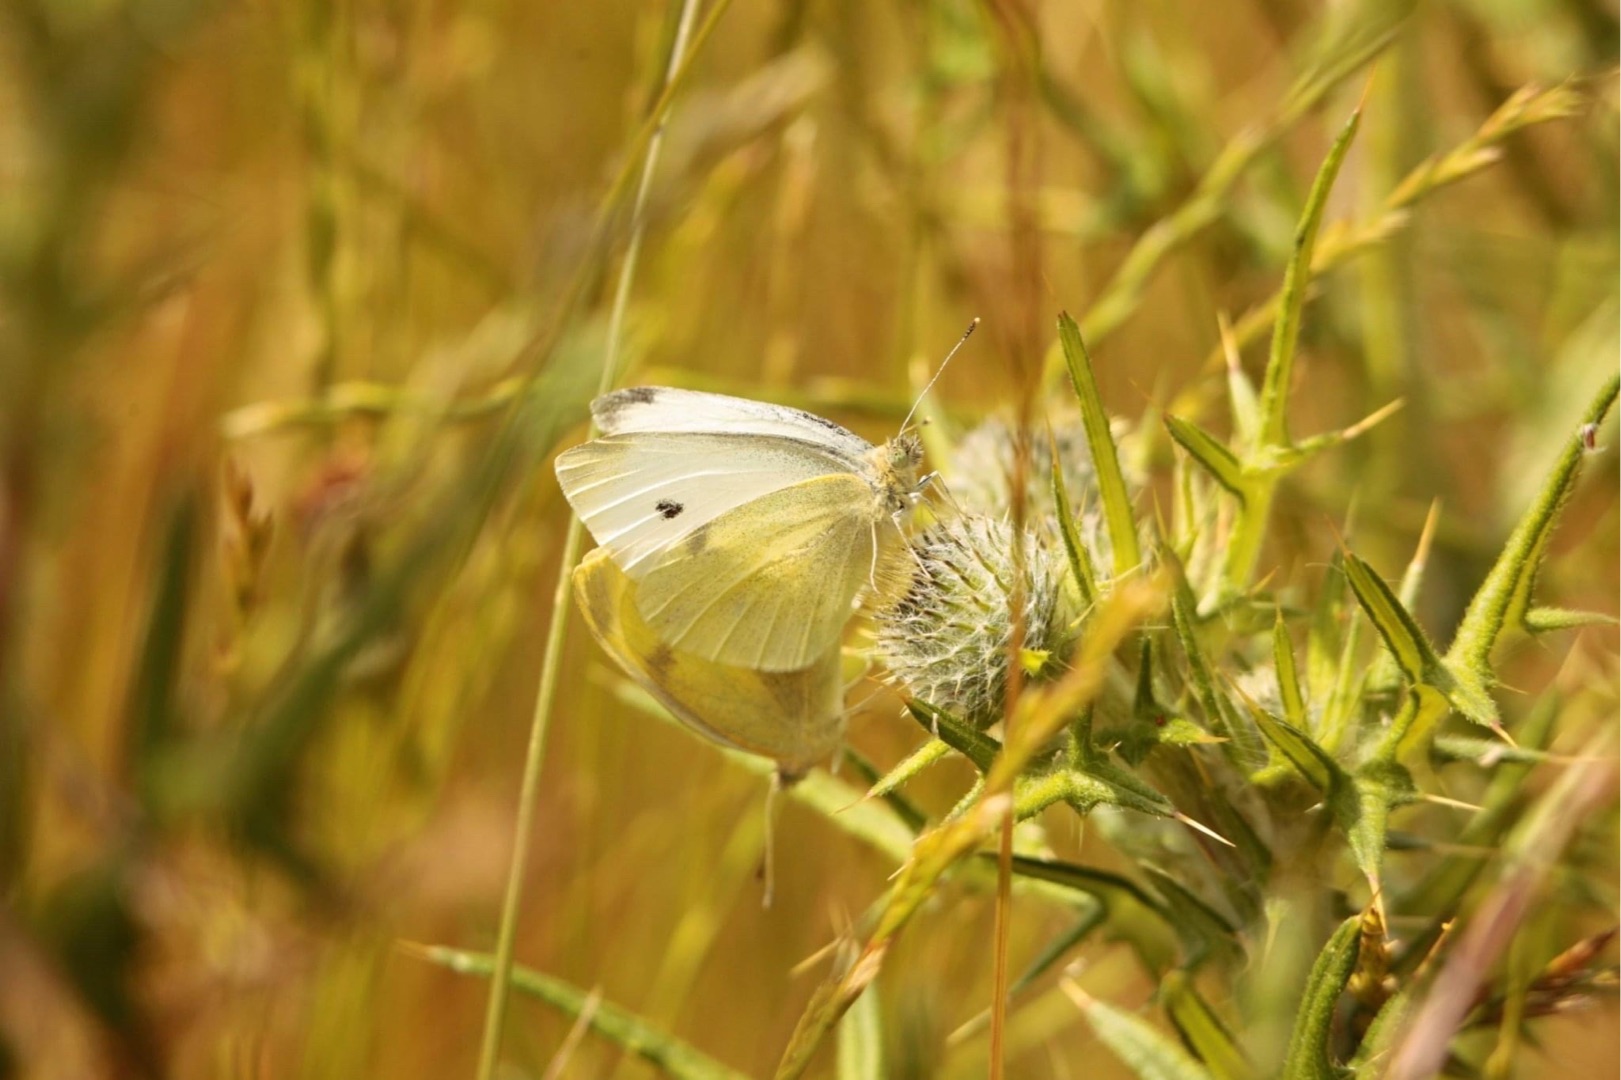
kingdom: Animalia
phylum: Arthropoda
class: Insecta
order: Lepidoptera
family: Pieridae
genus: Pieris
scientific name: Pieris rapae
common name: Lille kålsommerfugl
